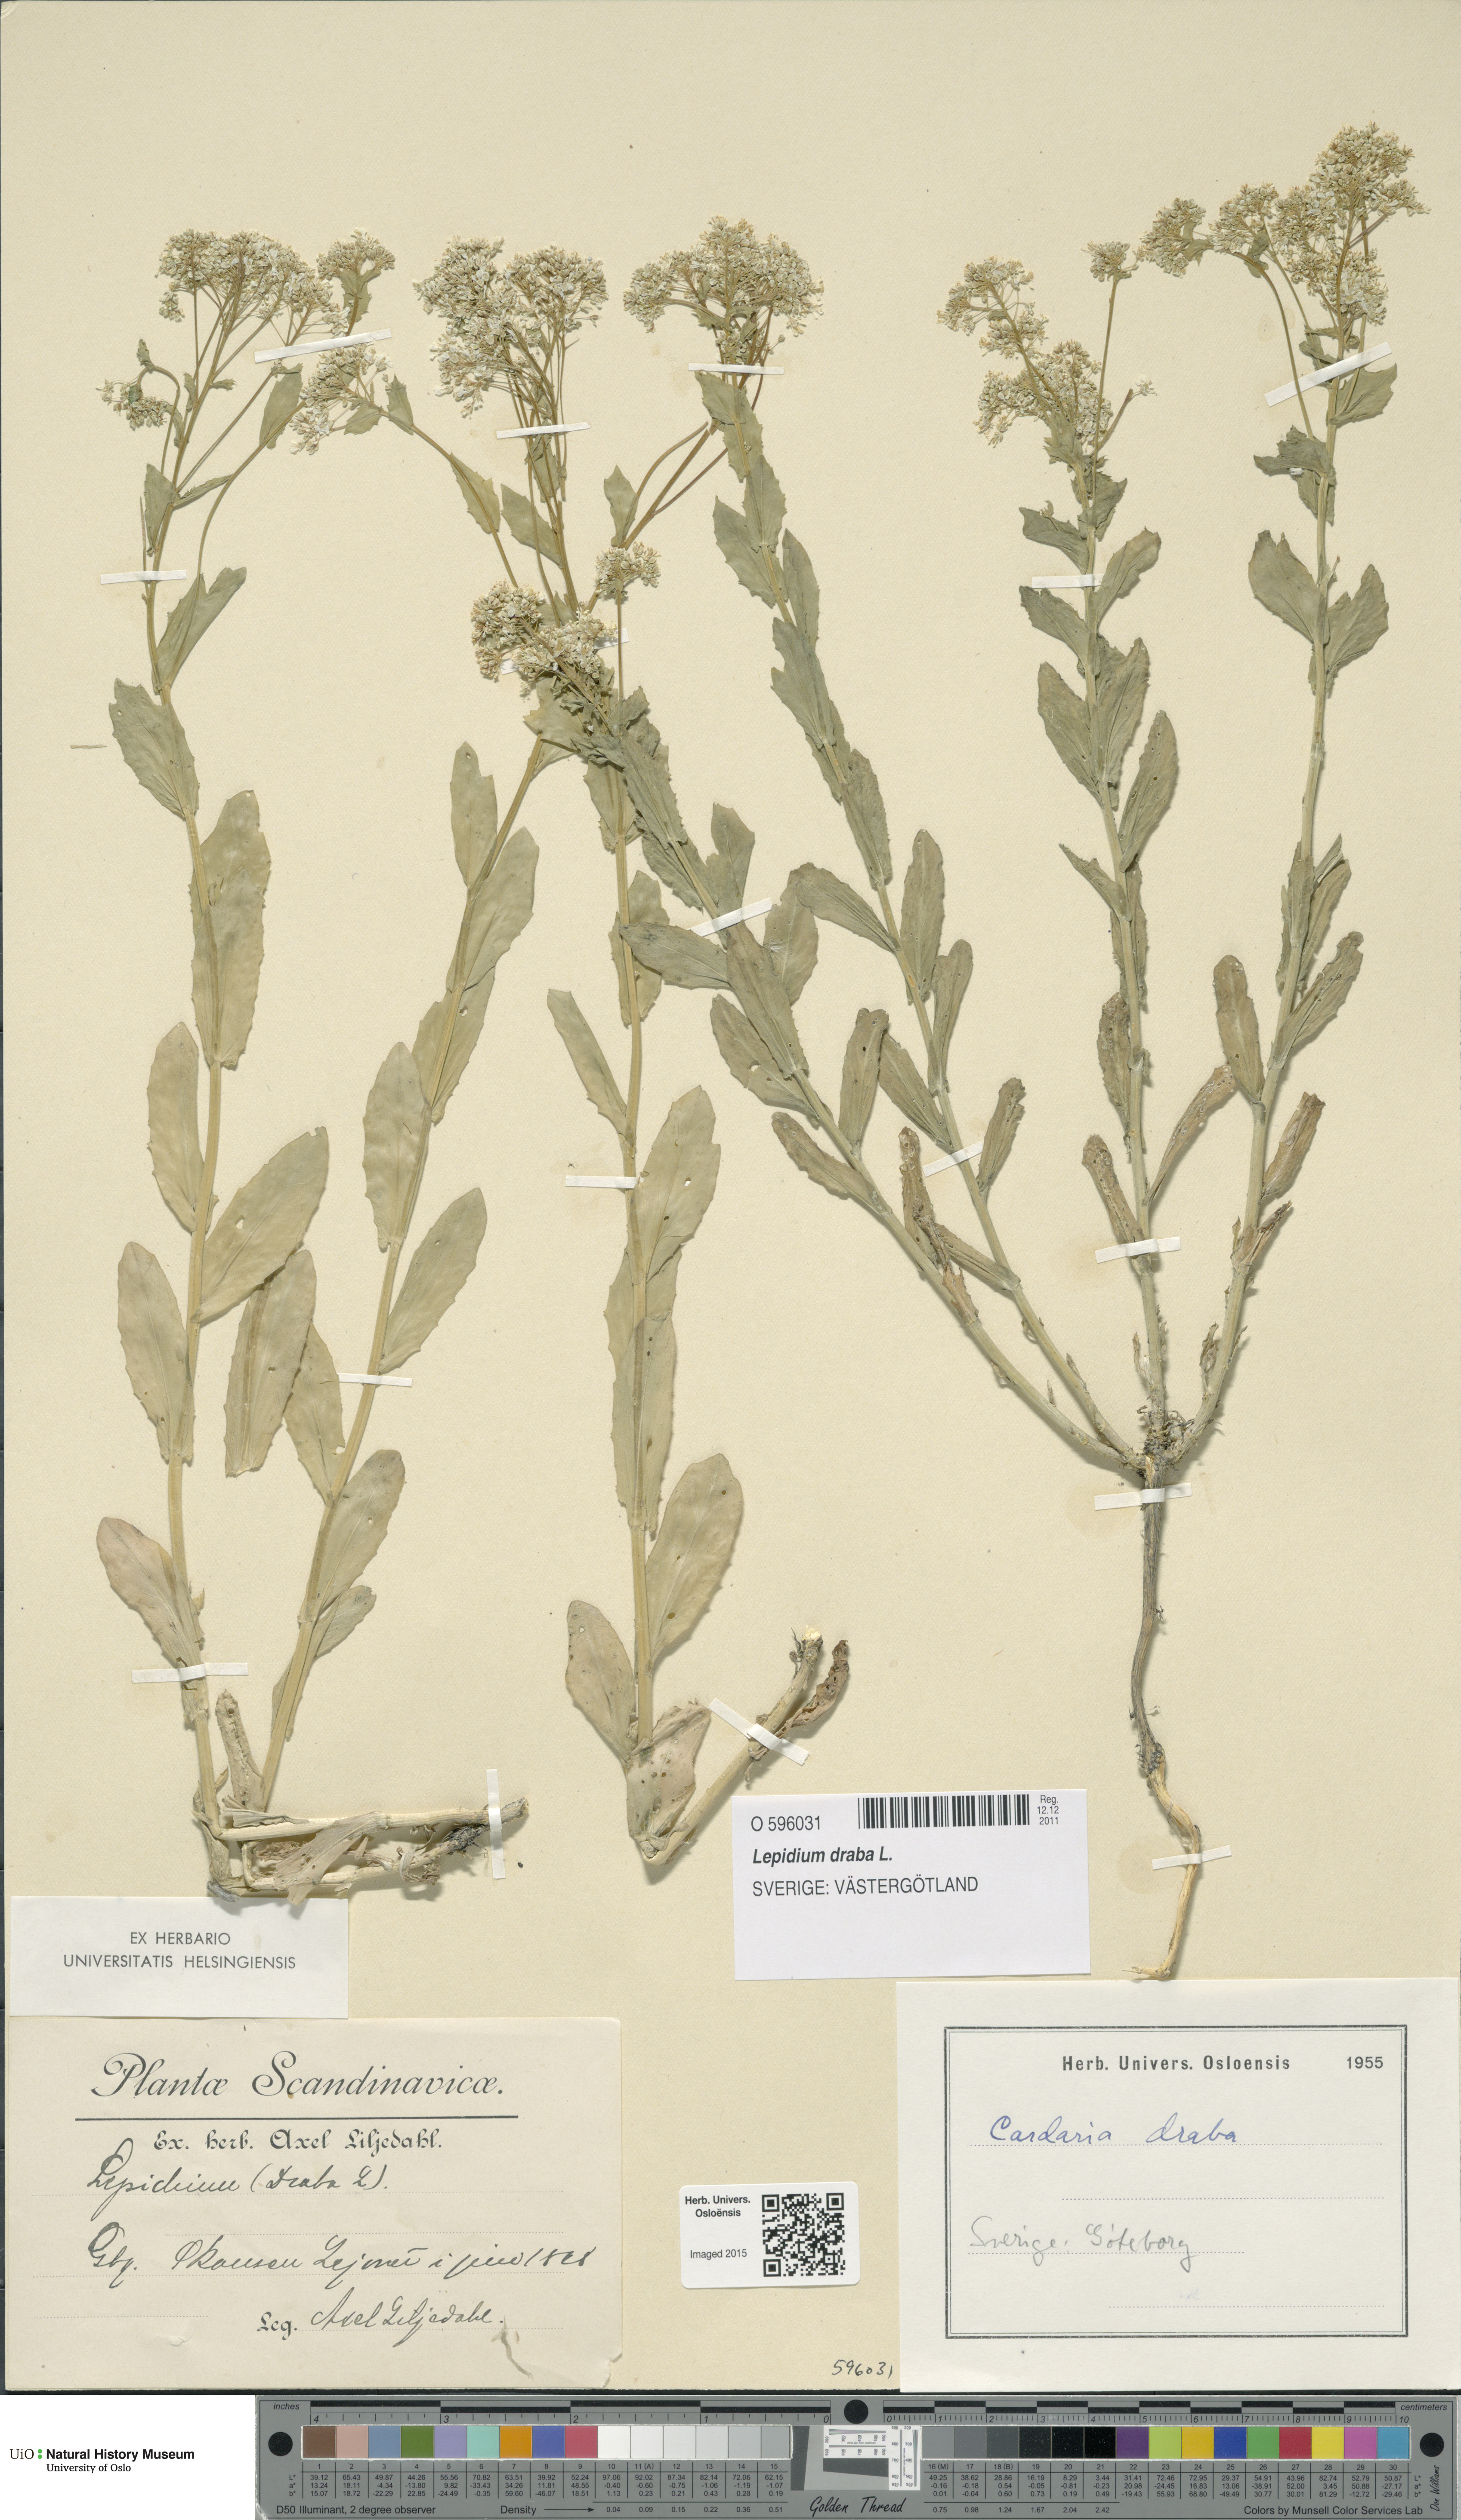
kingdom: Plantae
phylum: Tracheophyta
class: Magnoliopsida
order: Brassicales
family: Brassicaceae
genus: Lepidium
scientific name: Lepidium draba
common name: Hoary cress
